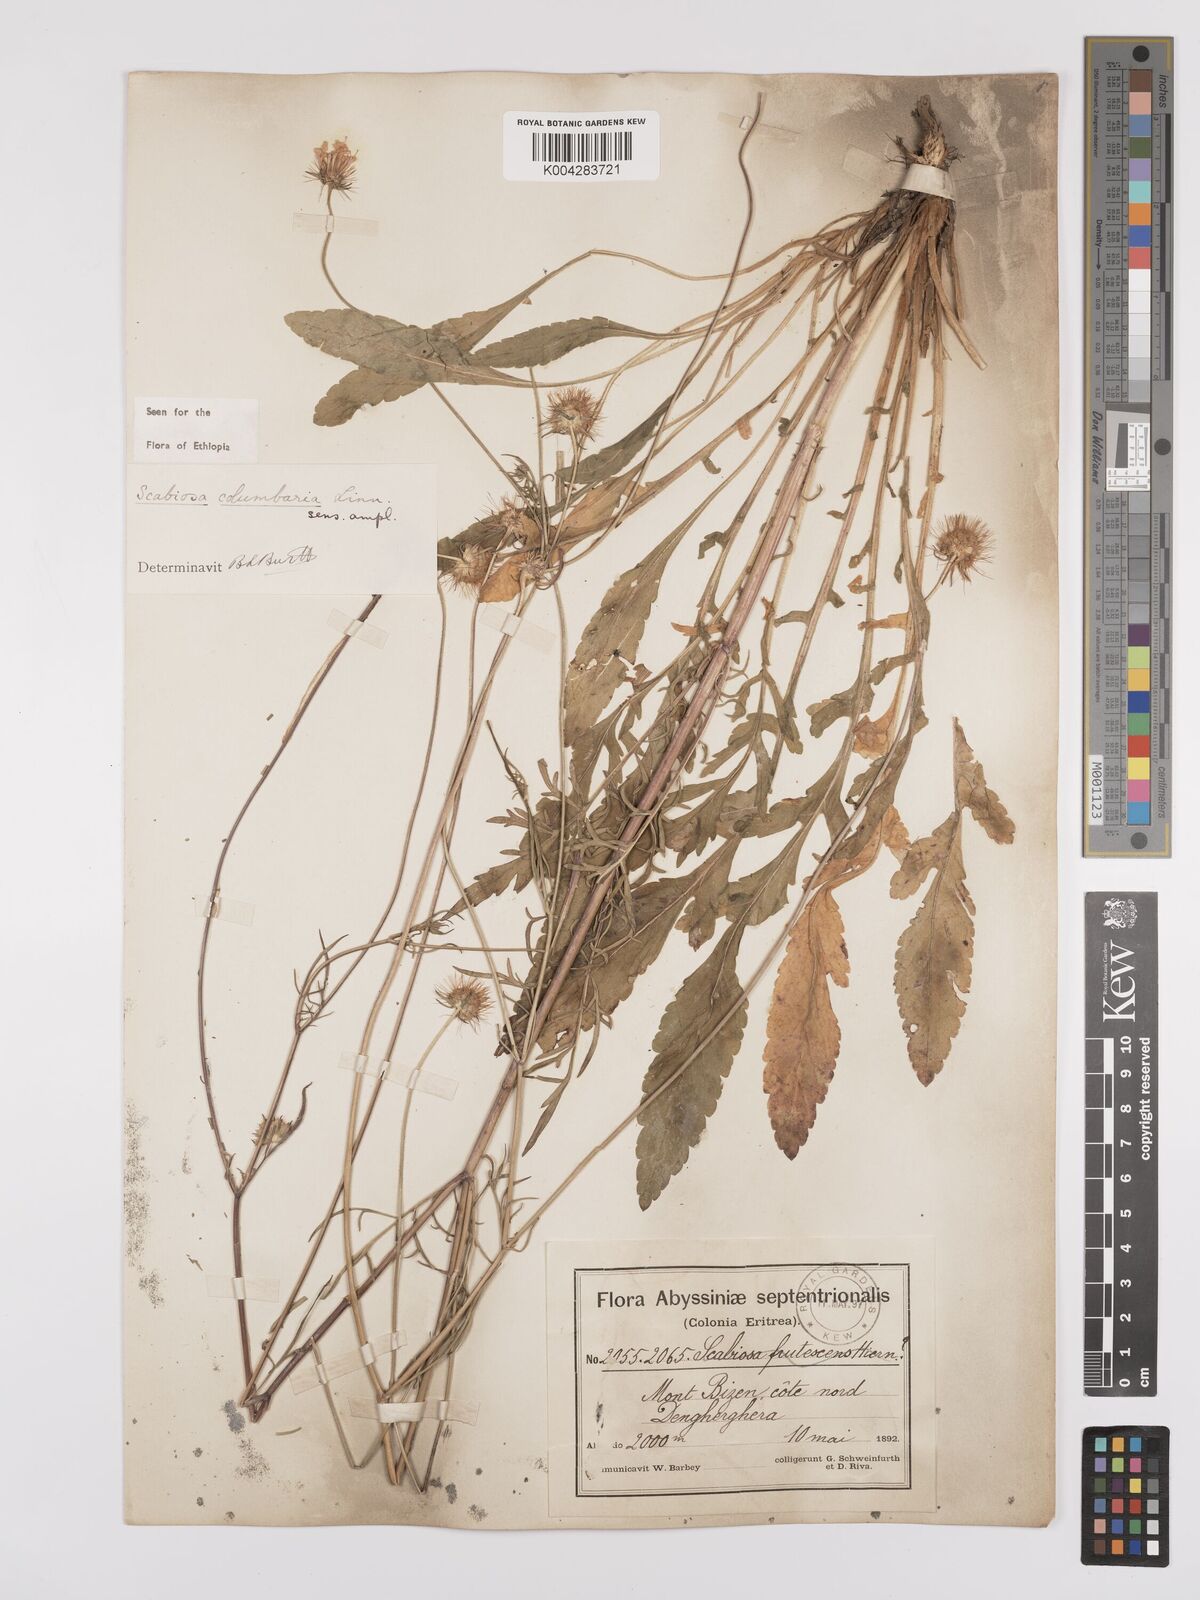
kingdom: Plantae
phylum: Tracheophyta
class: Magnoliopsida
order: Dipsacales
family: Caprifoliaceae
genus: Scabiosa
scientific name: Scabiosa columbaria
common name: Small scabious
